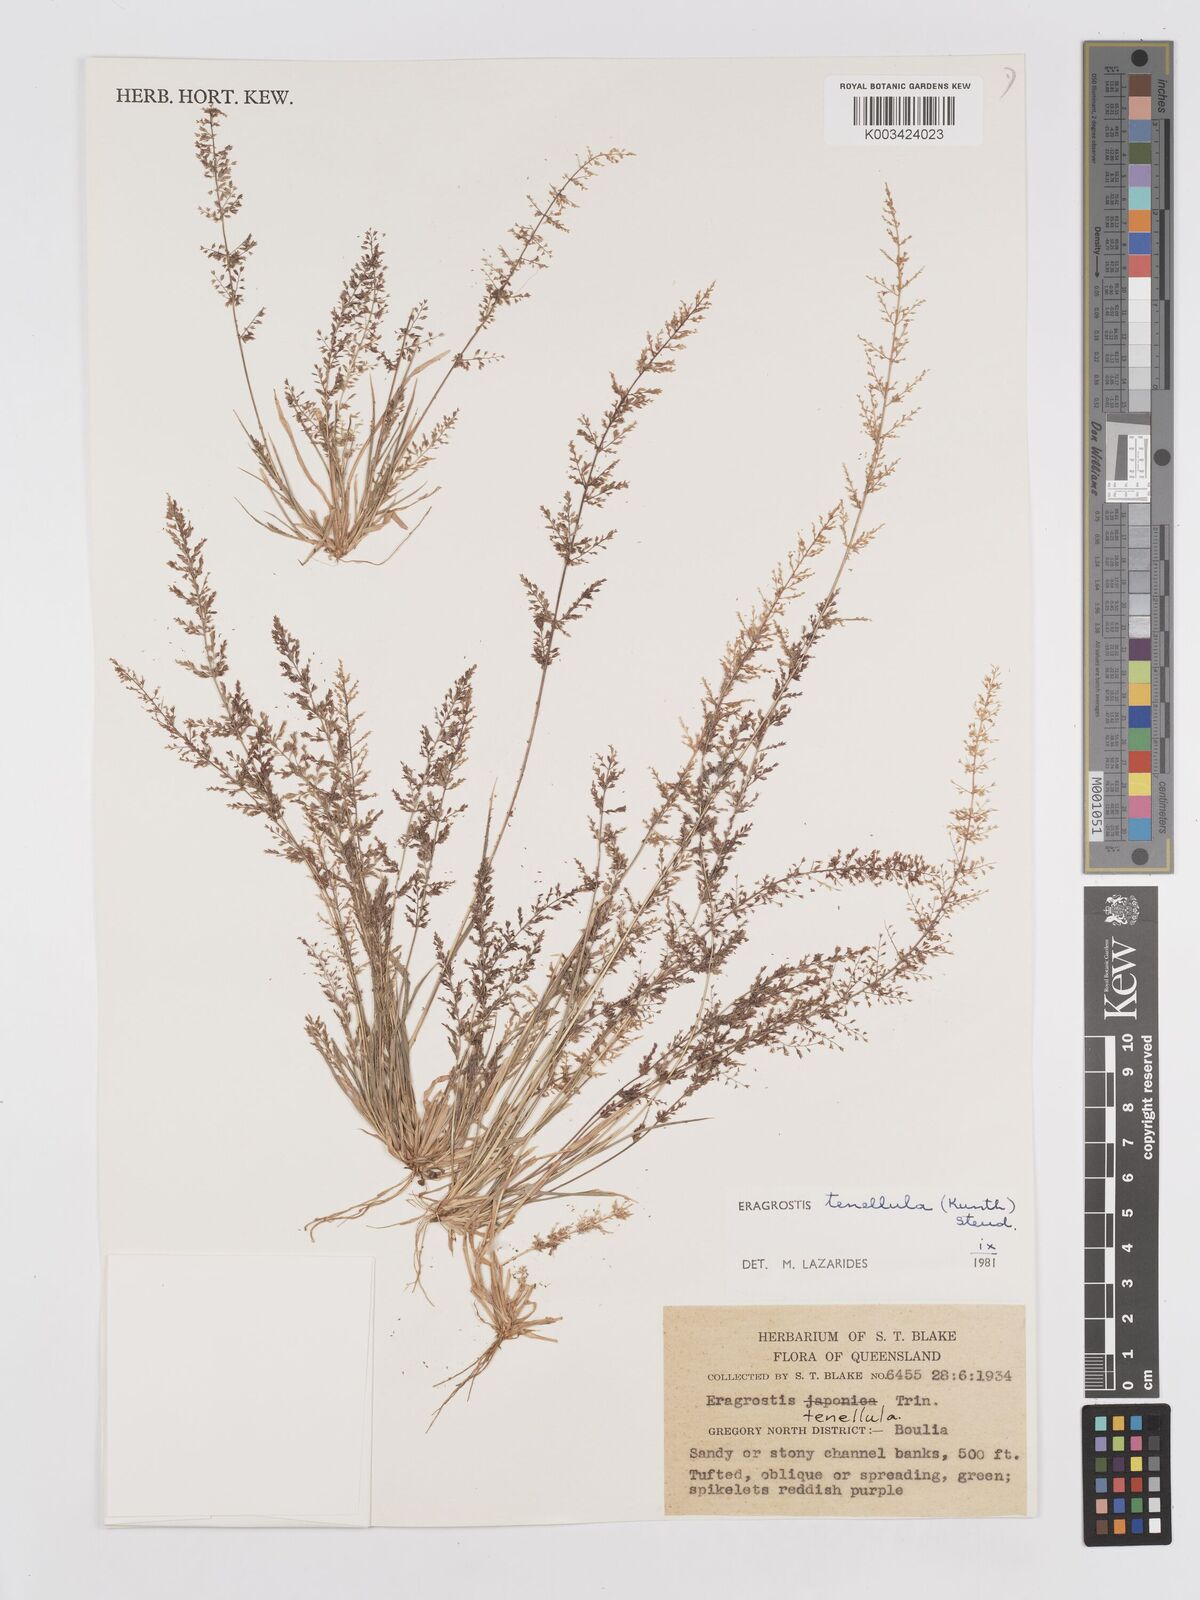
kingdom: Plantae
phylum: Tracheophyta
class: Liliopsida
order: Poales
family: Poaceae
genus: Eragrostis
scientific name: Eragrostis tenellula
